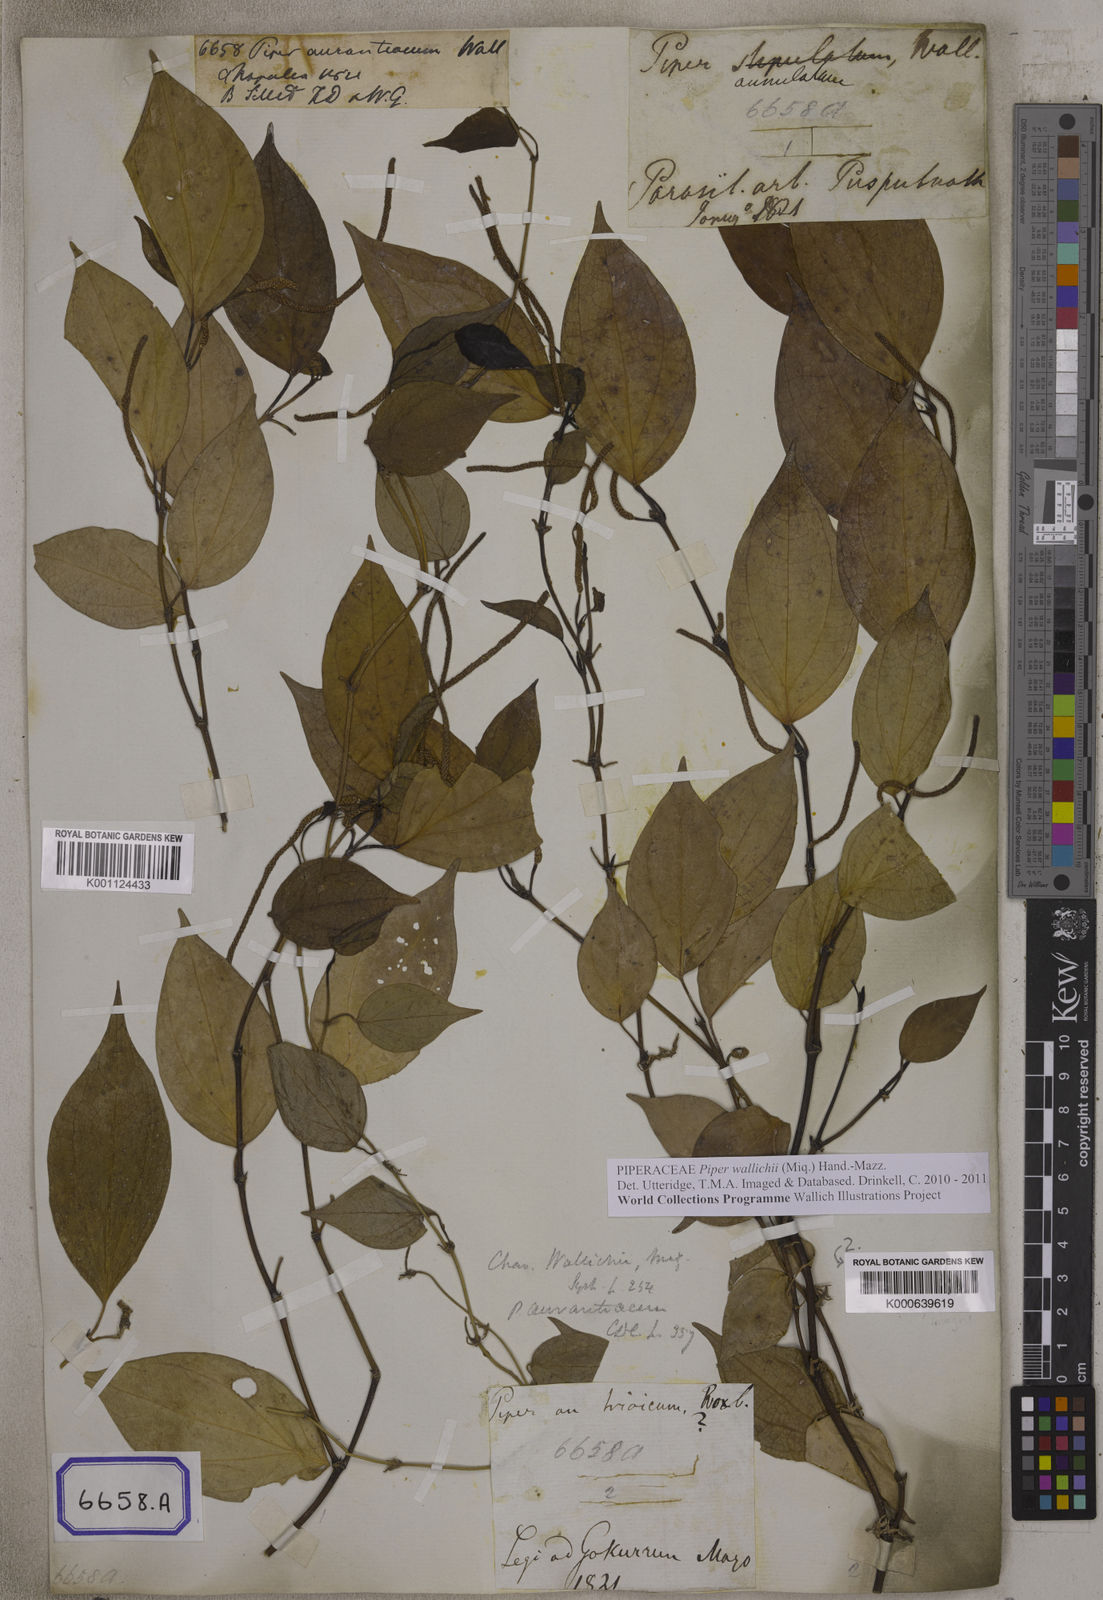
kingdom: Plantae
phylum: Tracheophyta
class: Magnoliopsida
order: Piperales
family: Piperaceae
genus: Piper
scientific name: Piper wallichii
